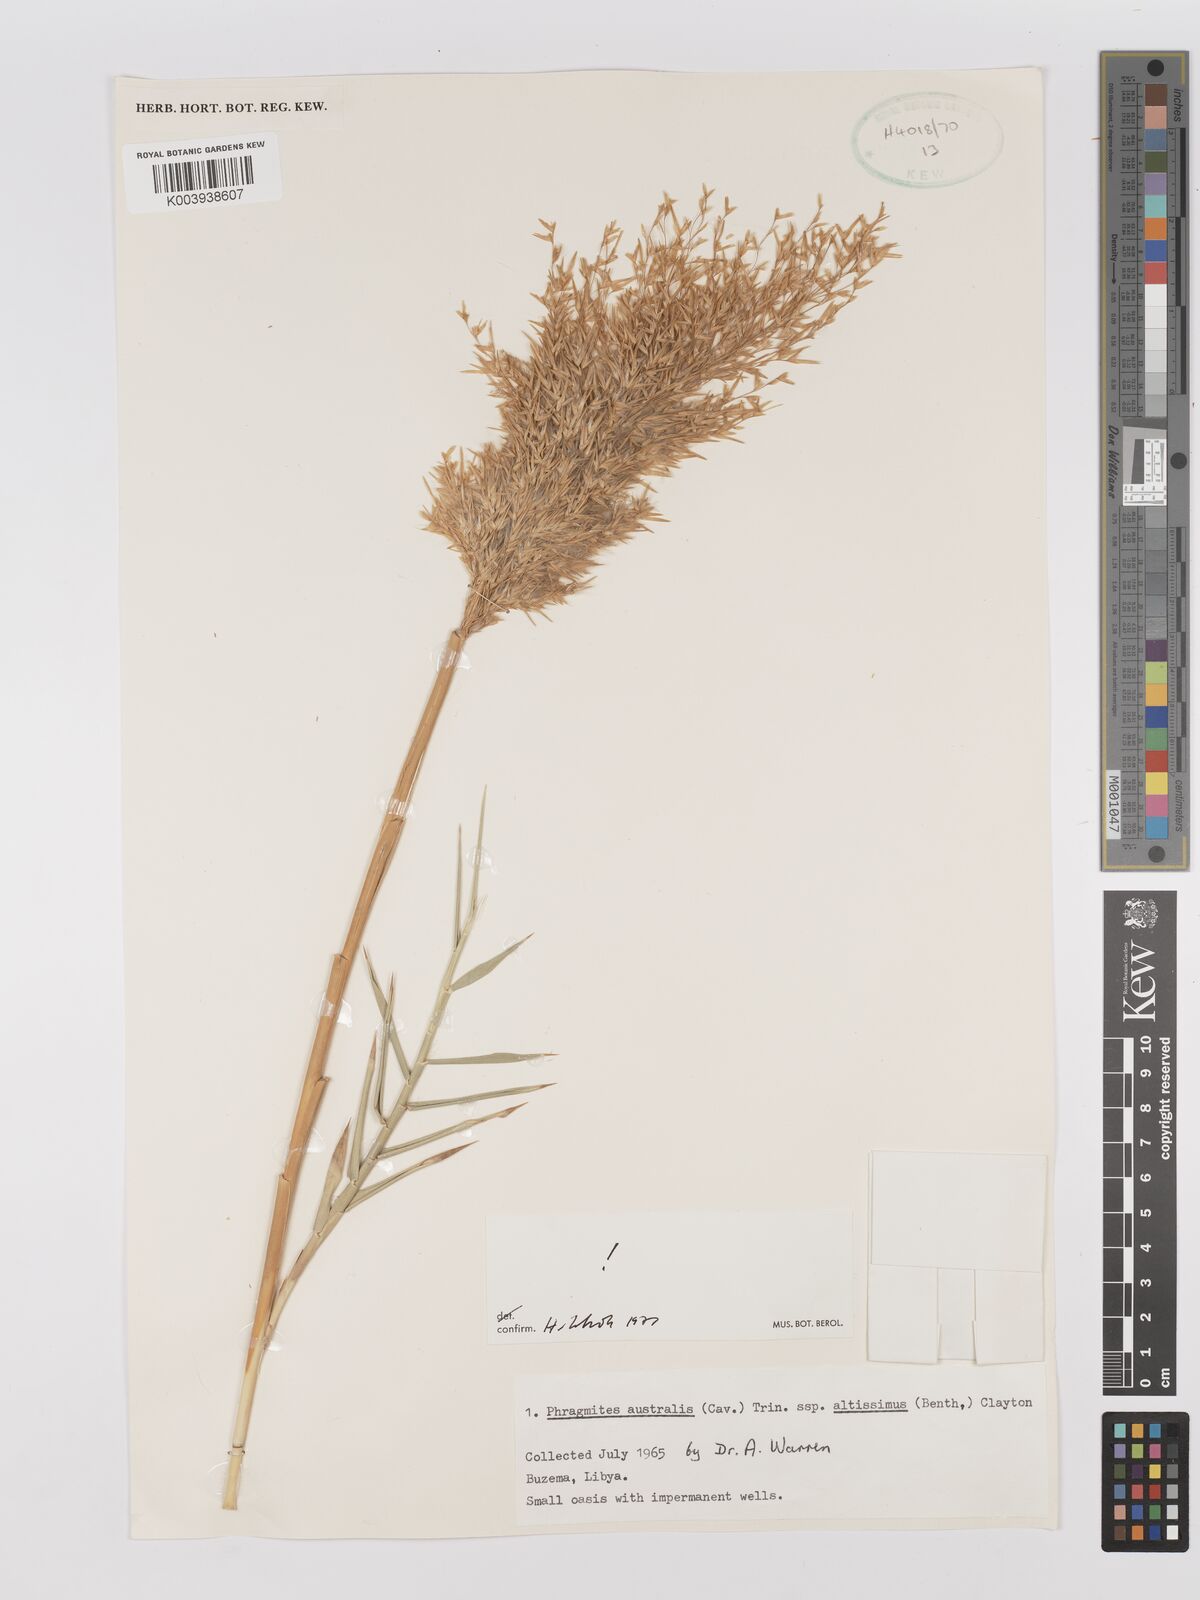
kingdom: Plantae
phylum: Tracheophyta
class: Liliopsida
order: Poales
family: Poaceae
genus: Phragmites
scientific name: Phragmites australis
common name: Common reed
